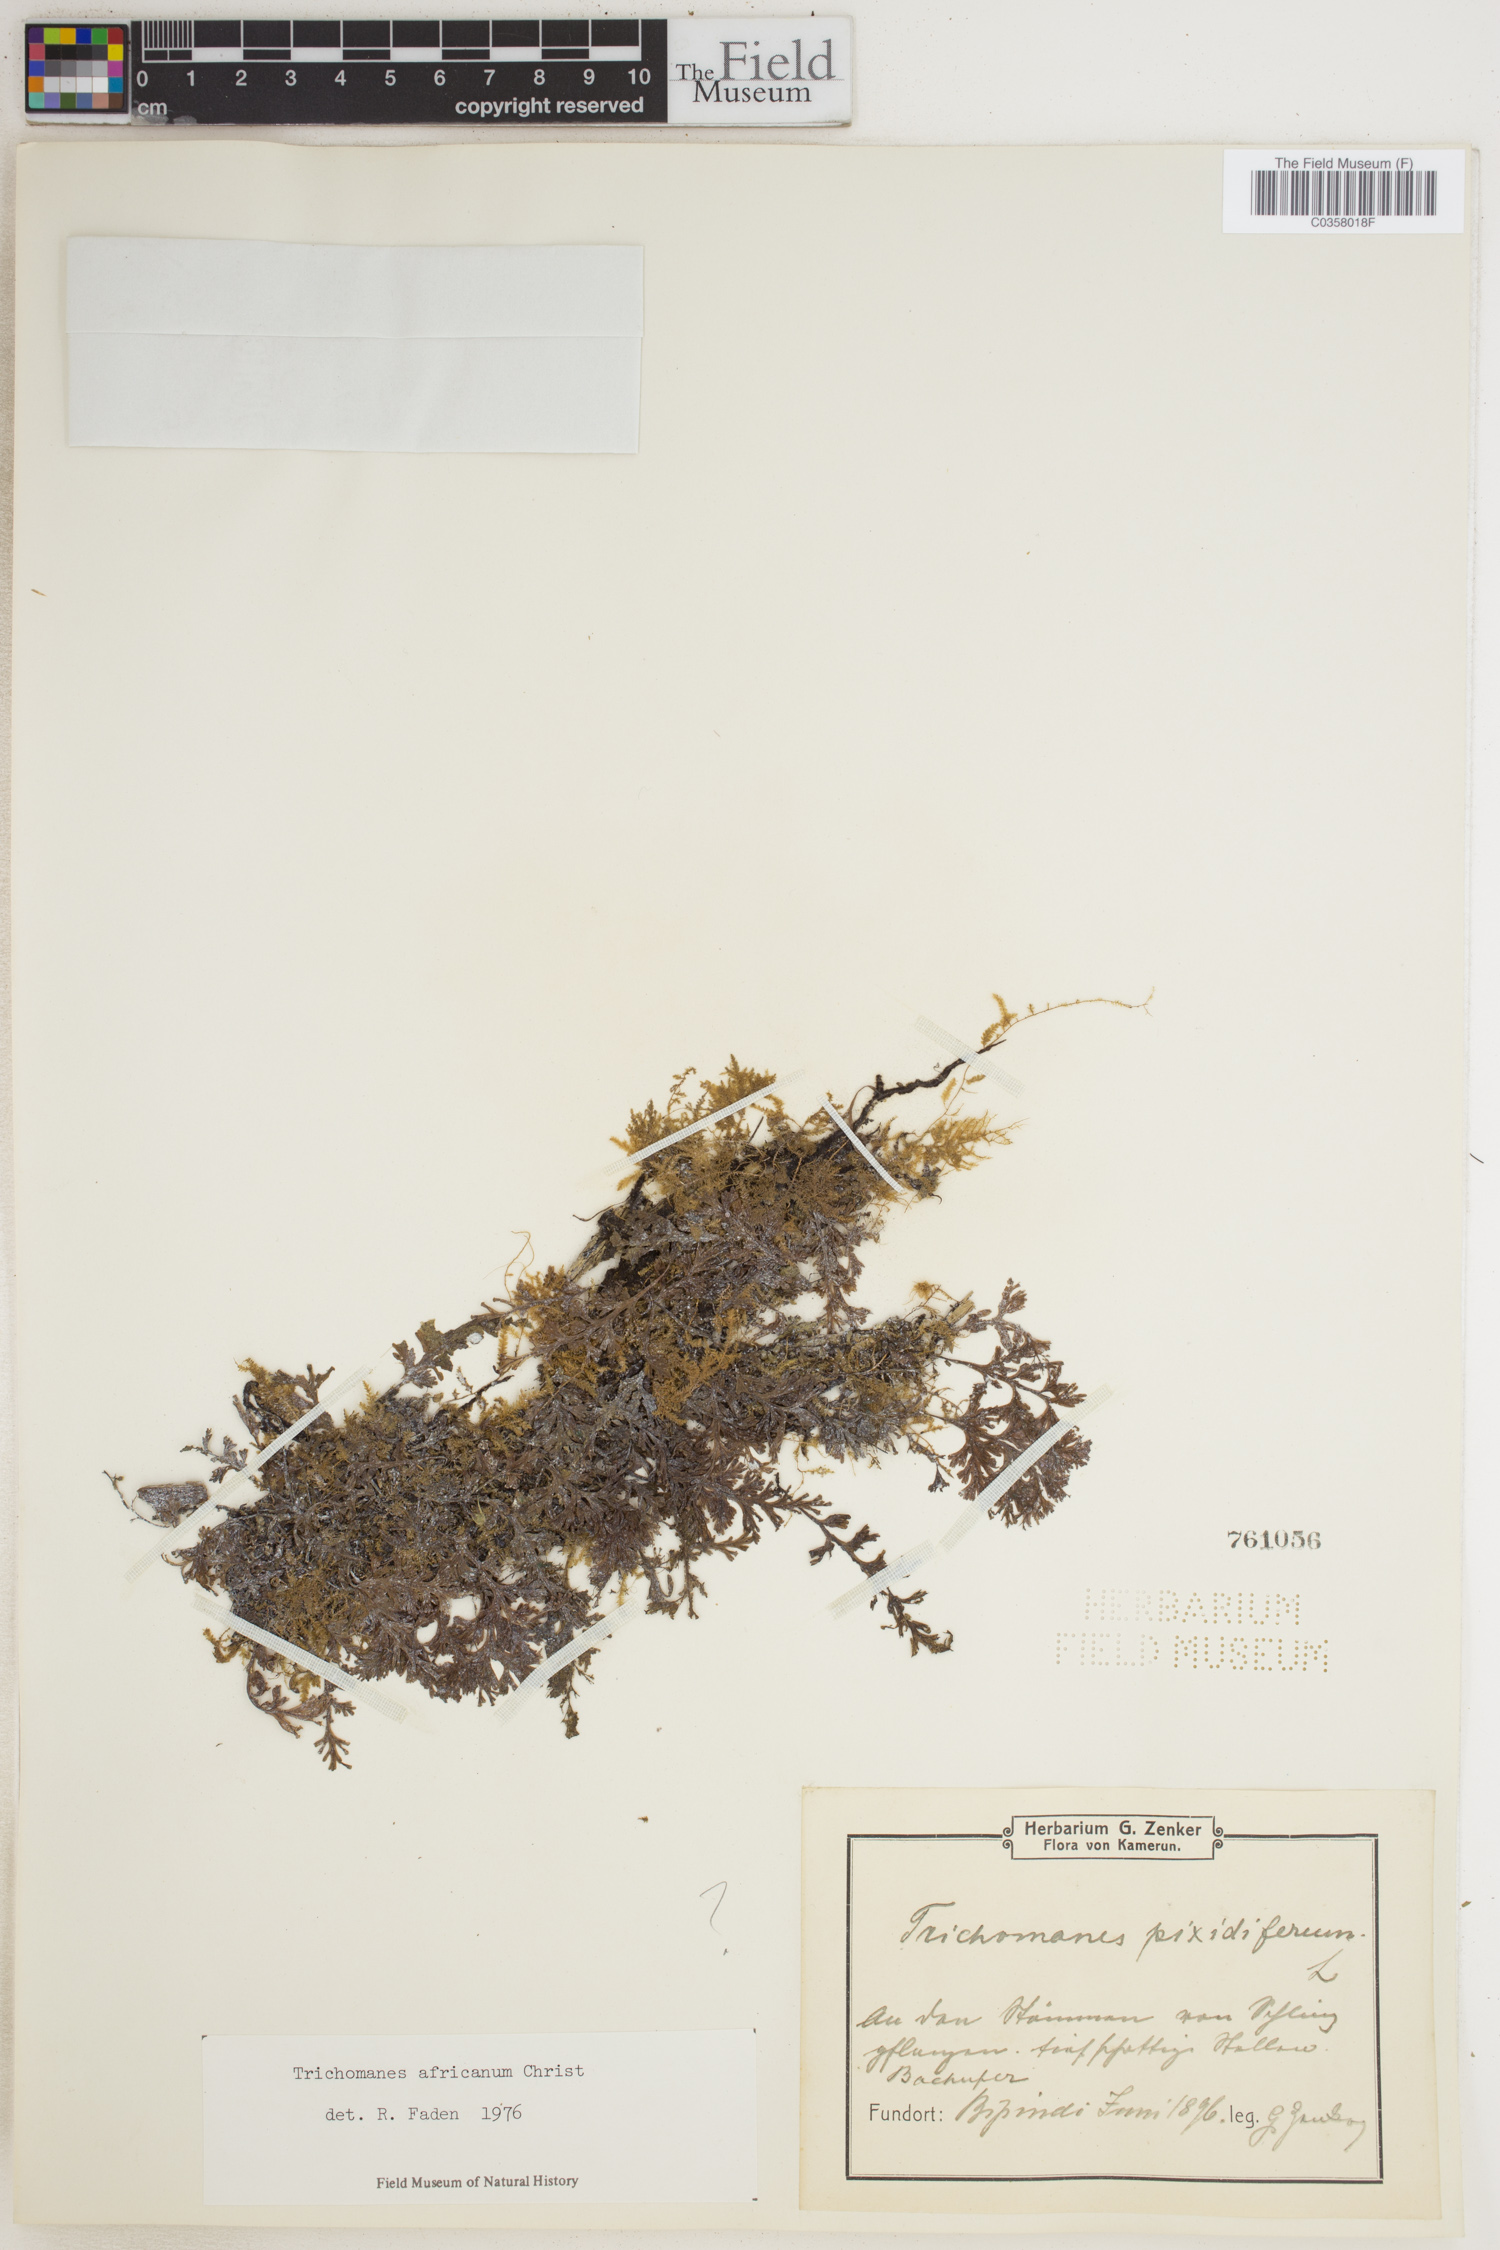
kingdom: Plantae
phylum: Tracheophyta
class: Polypodiopsida
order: Hymenophyllales
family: Hymenophyllaceae
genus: Crepidomanes
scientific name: Crepidomanes africanum
